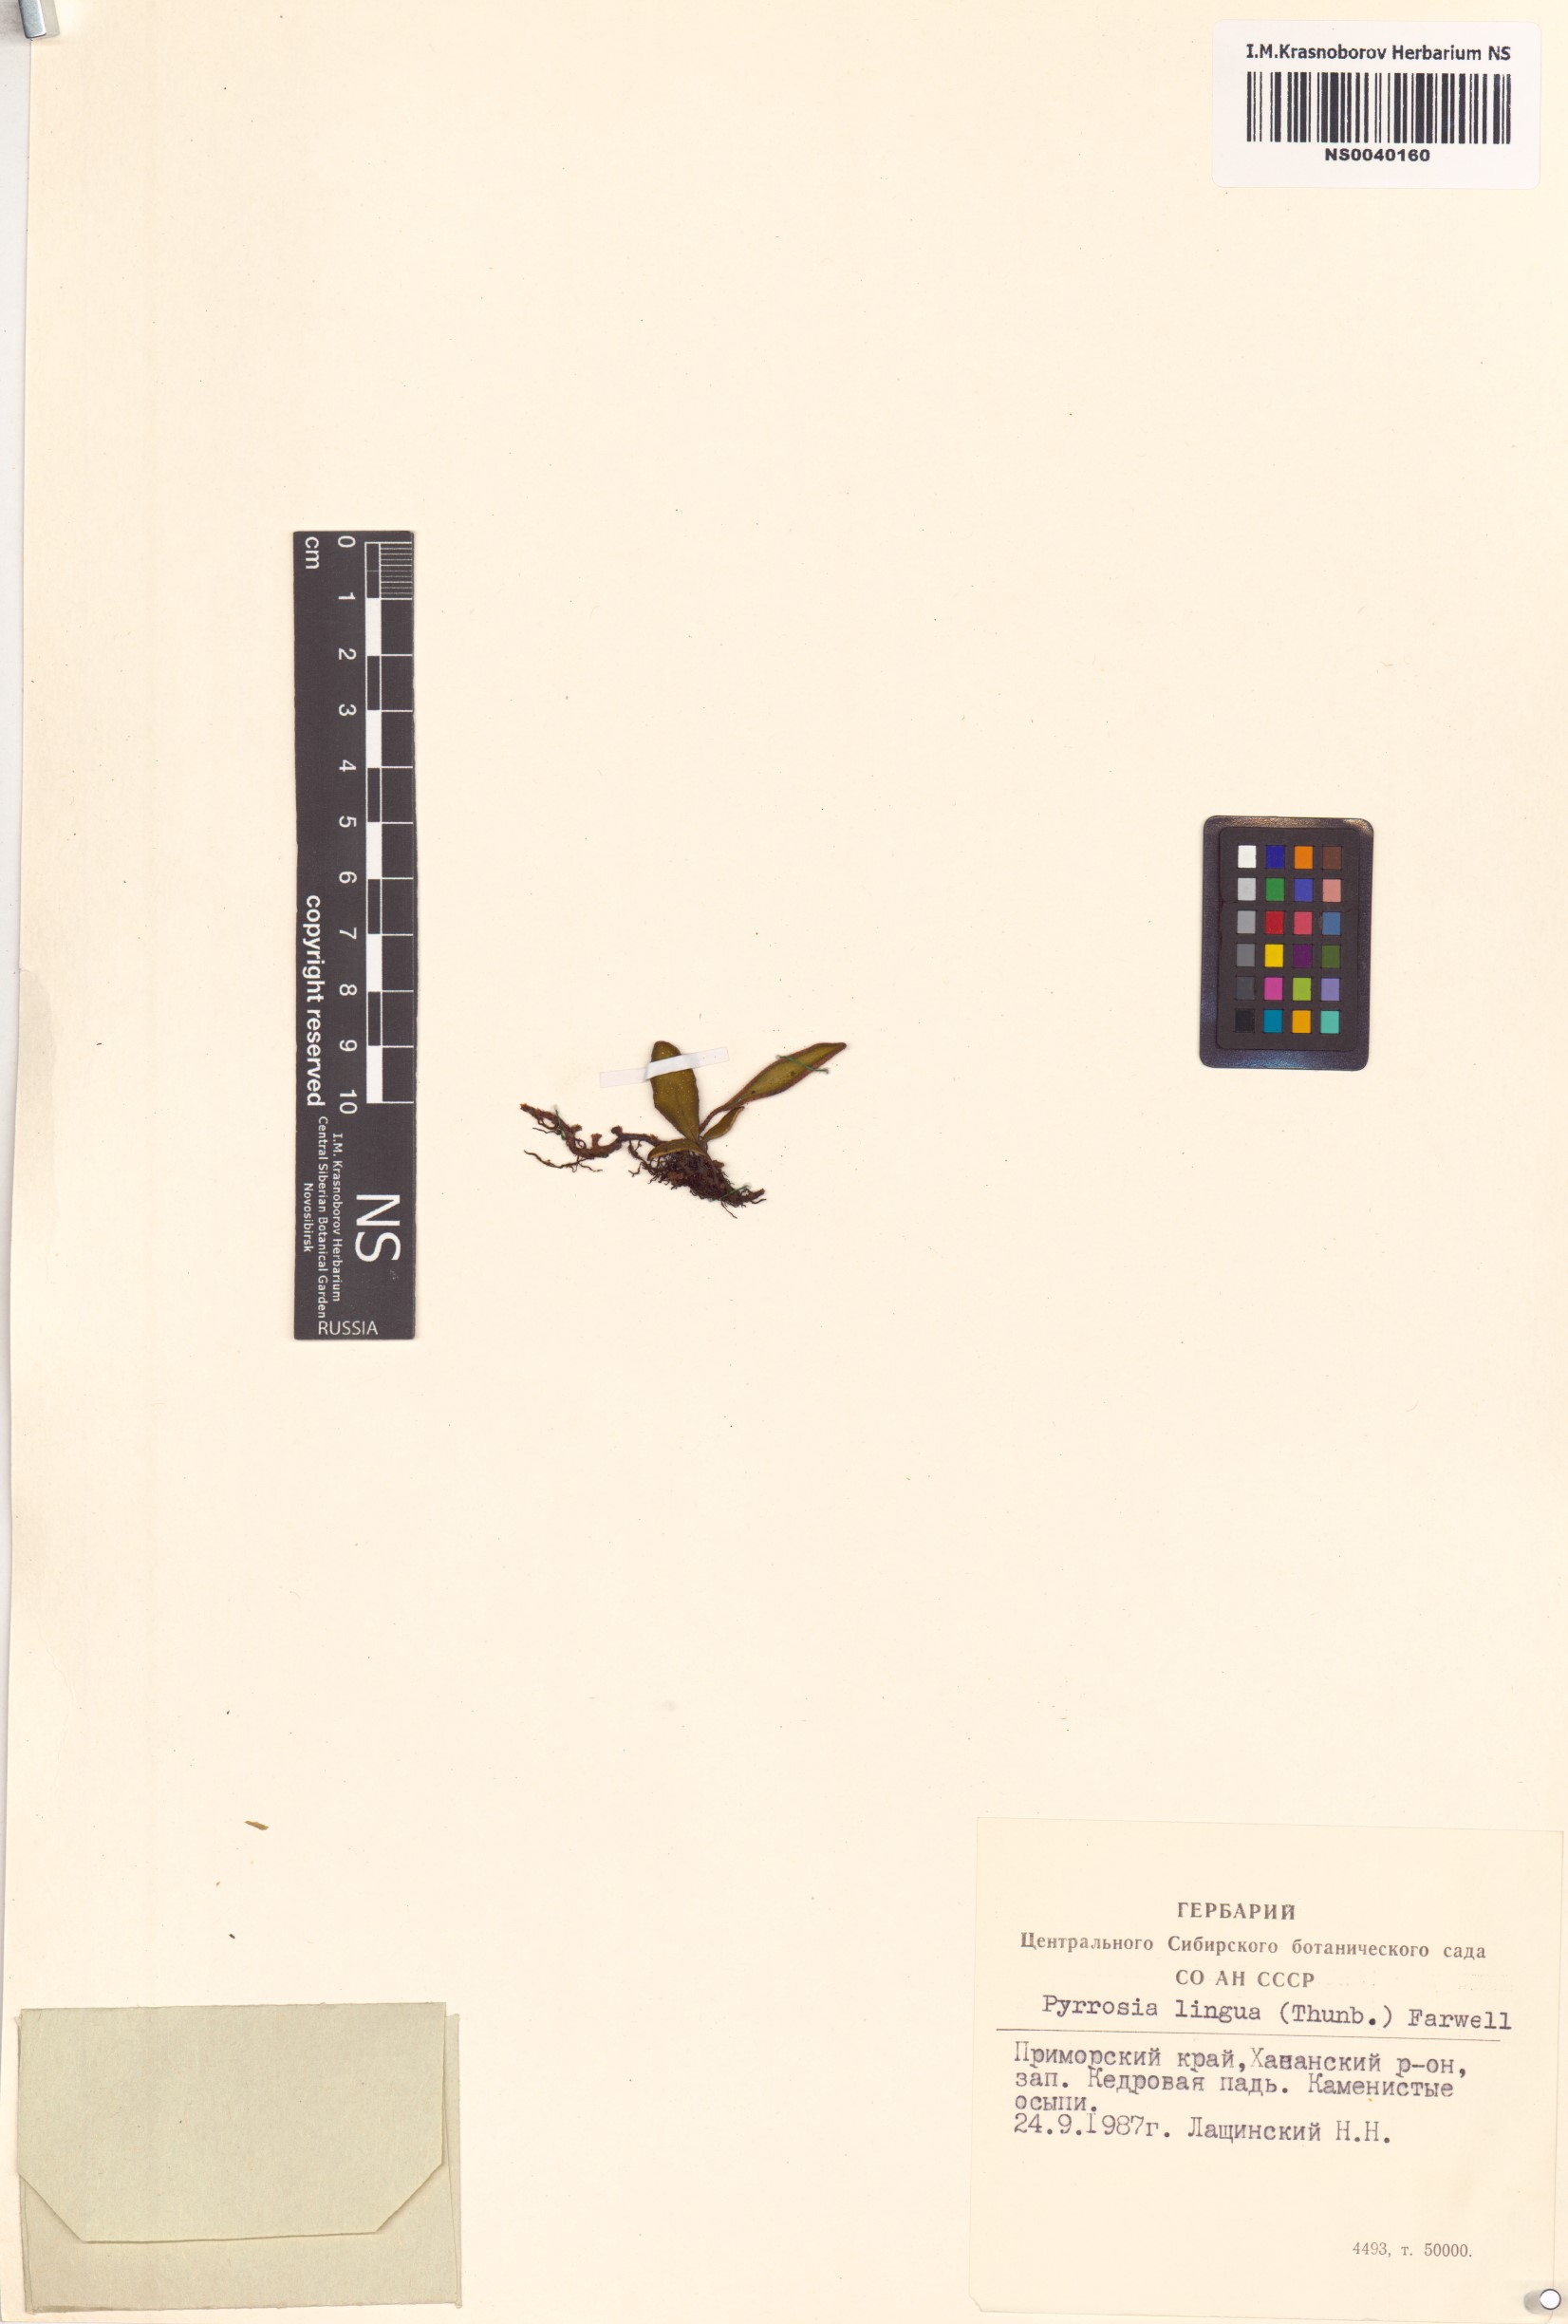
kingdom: Plantae
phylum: Tracheophyta
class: Polypodiopsida
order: Polypodiales
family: Polypodiaceae
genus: Pyrrosia
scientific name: Pyrrosia lingua
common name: Felt fern
